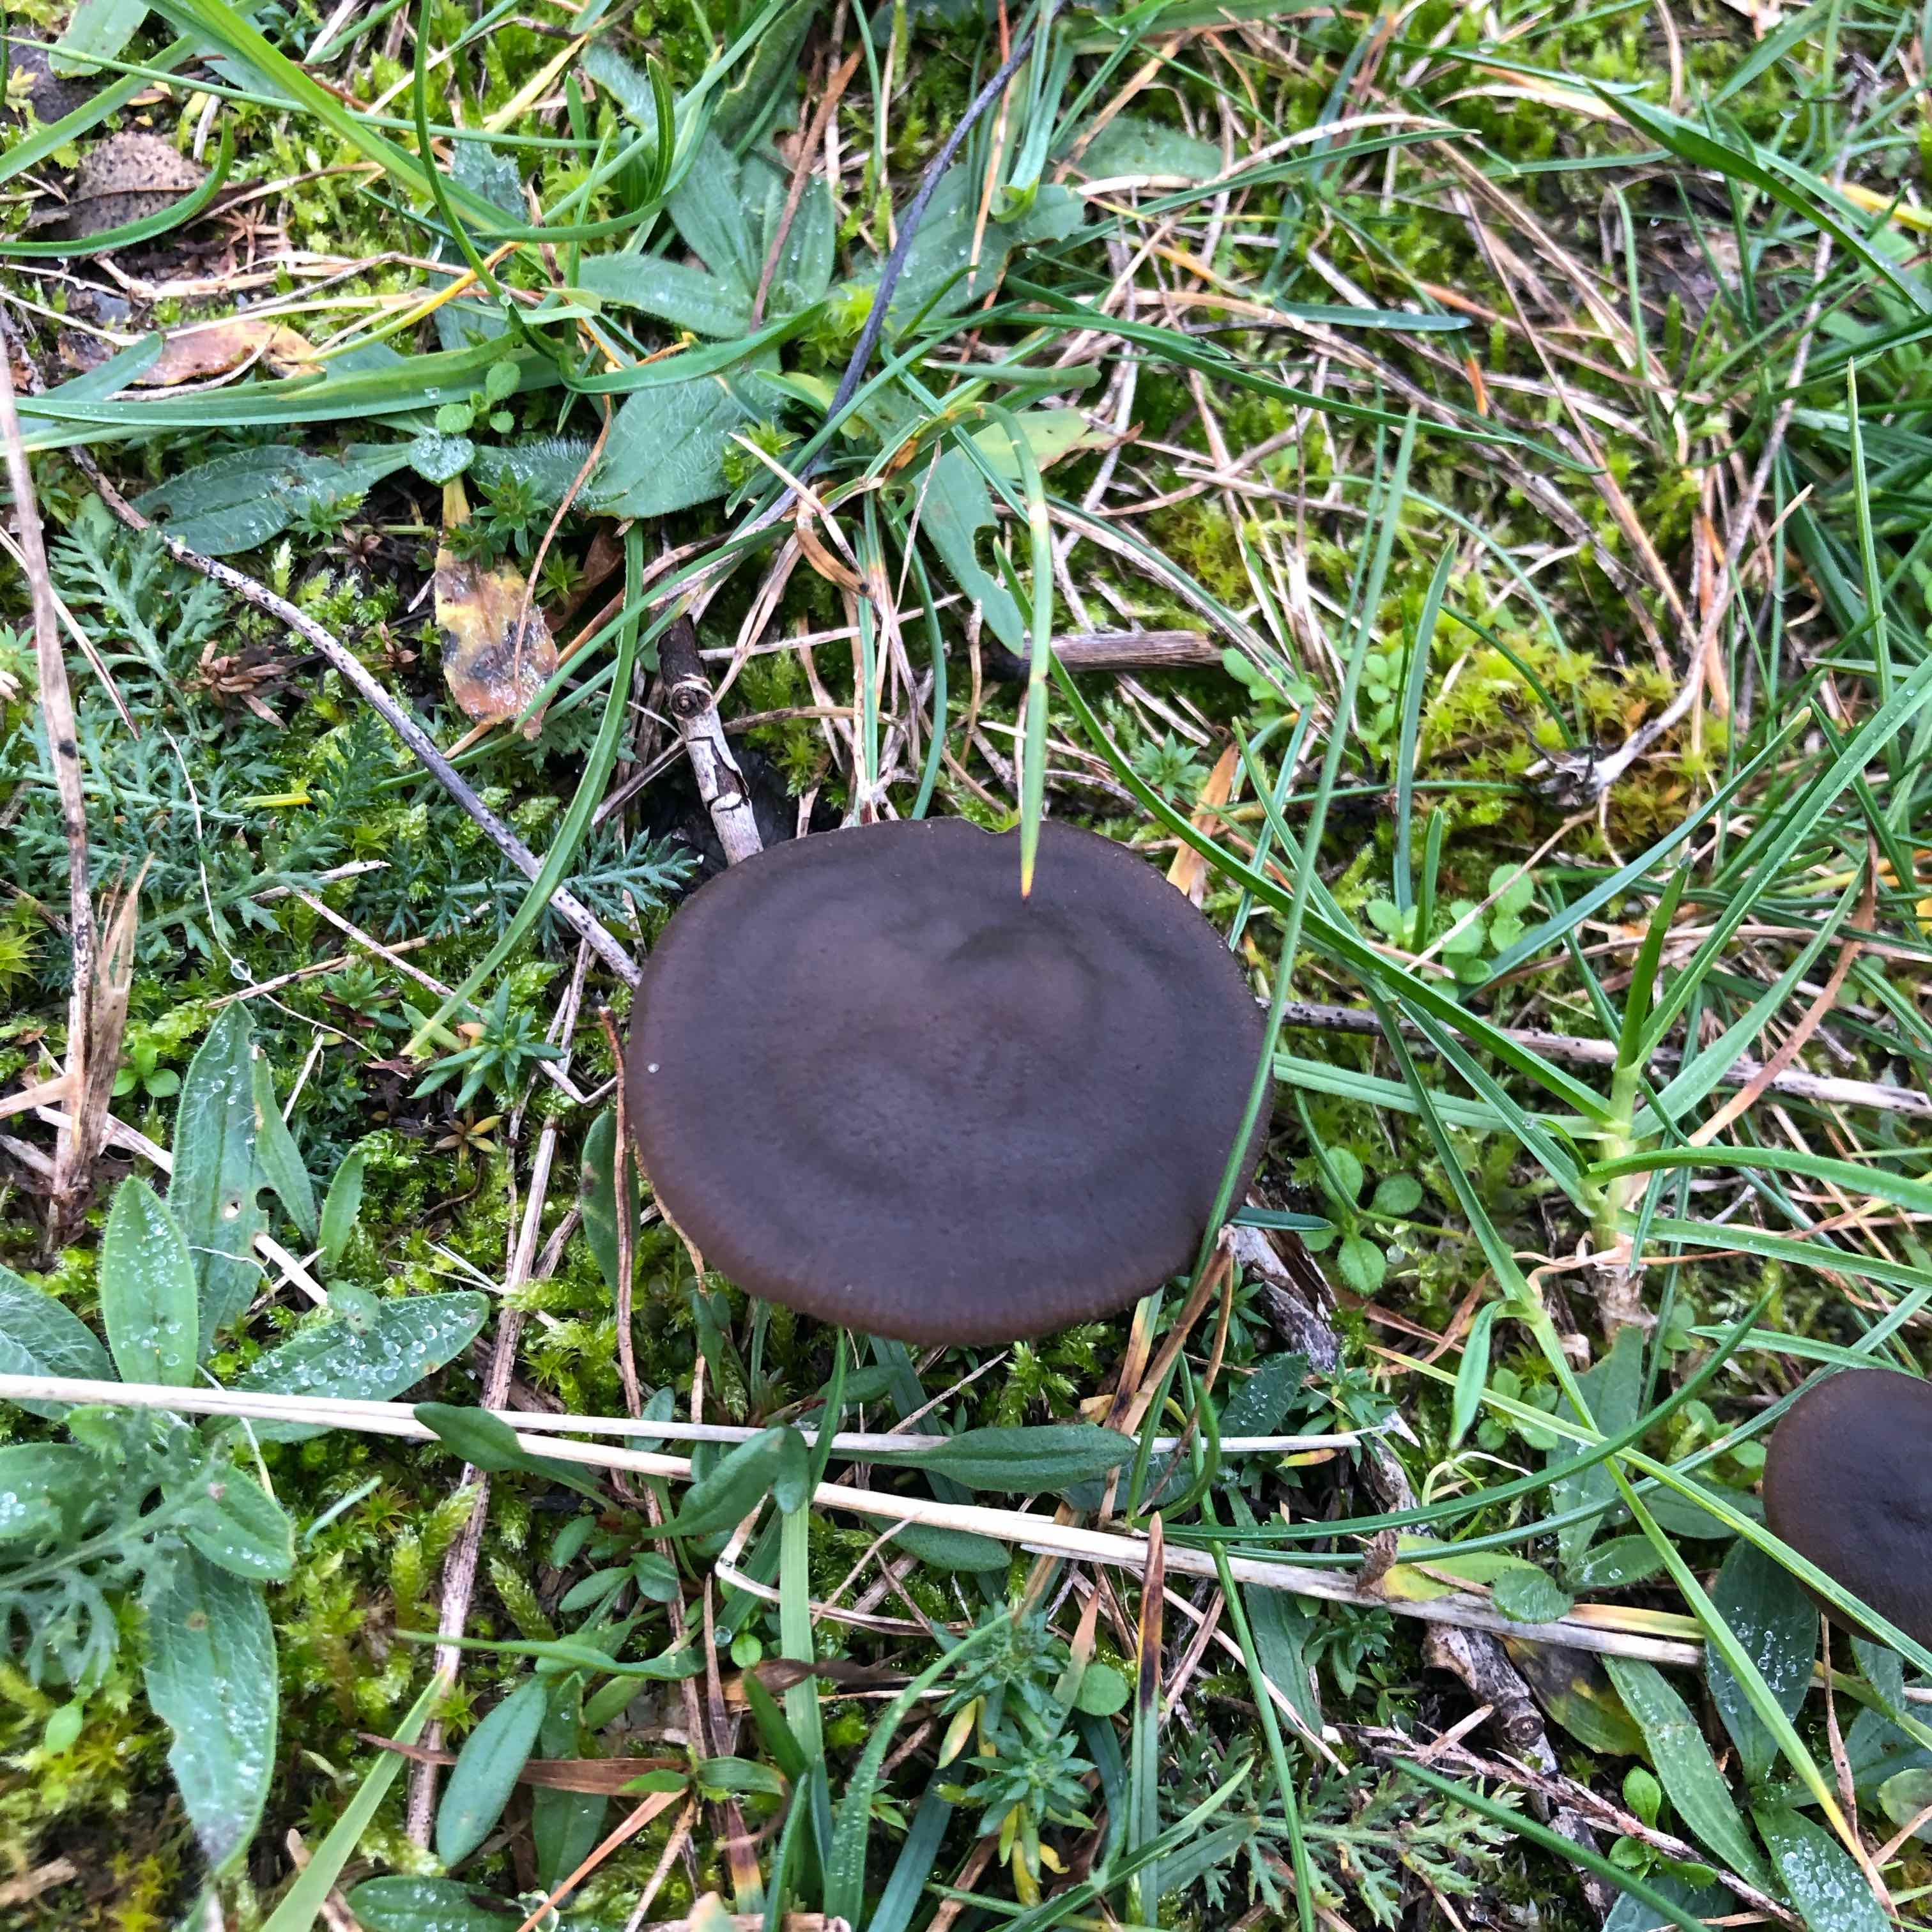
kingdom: Fungi
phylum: Basidiomycota
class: Agaricomycetes
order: Agaricales
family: Entolomataceae
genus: Entoloma
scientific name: Entoloma vindobonense
